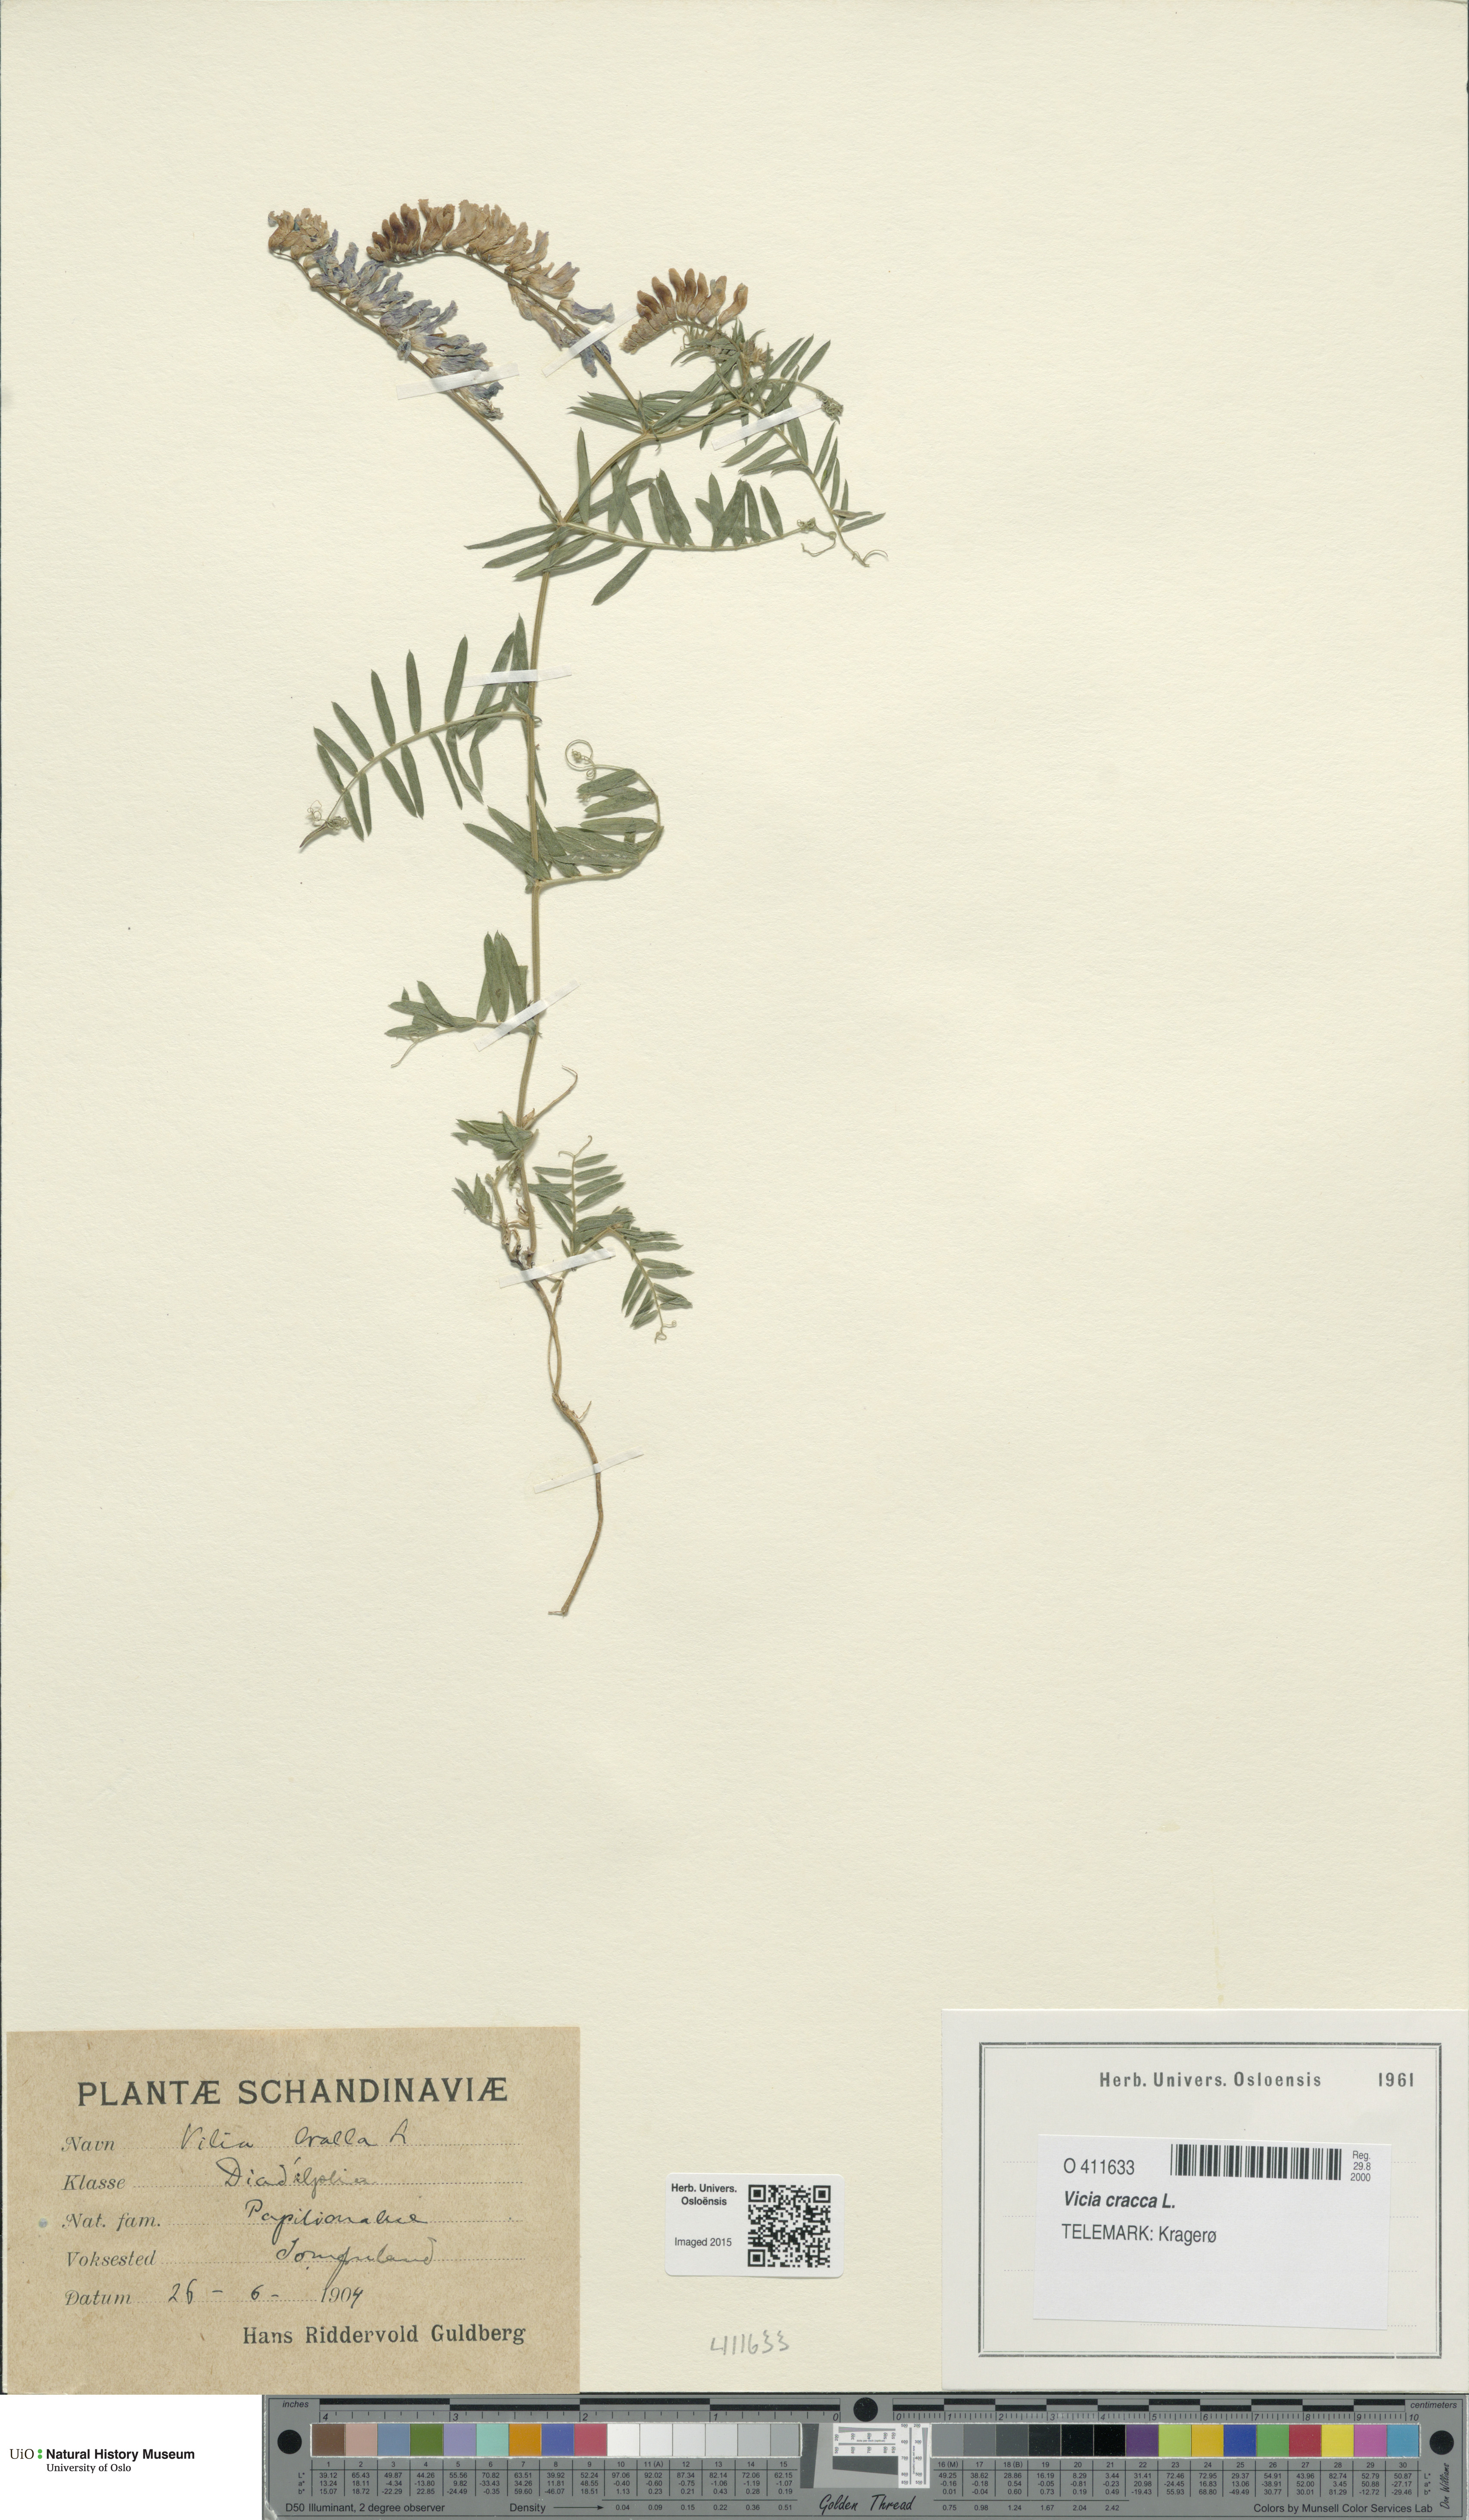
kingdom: Plantae
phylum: Tracheophyta
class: Magnoliopsida
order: Fabales
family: Fabaceae
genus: Vicia
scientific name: Vicia cracca
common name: Bird vetch
